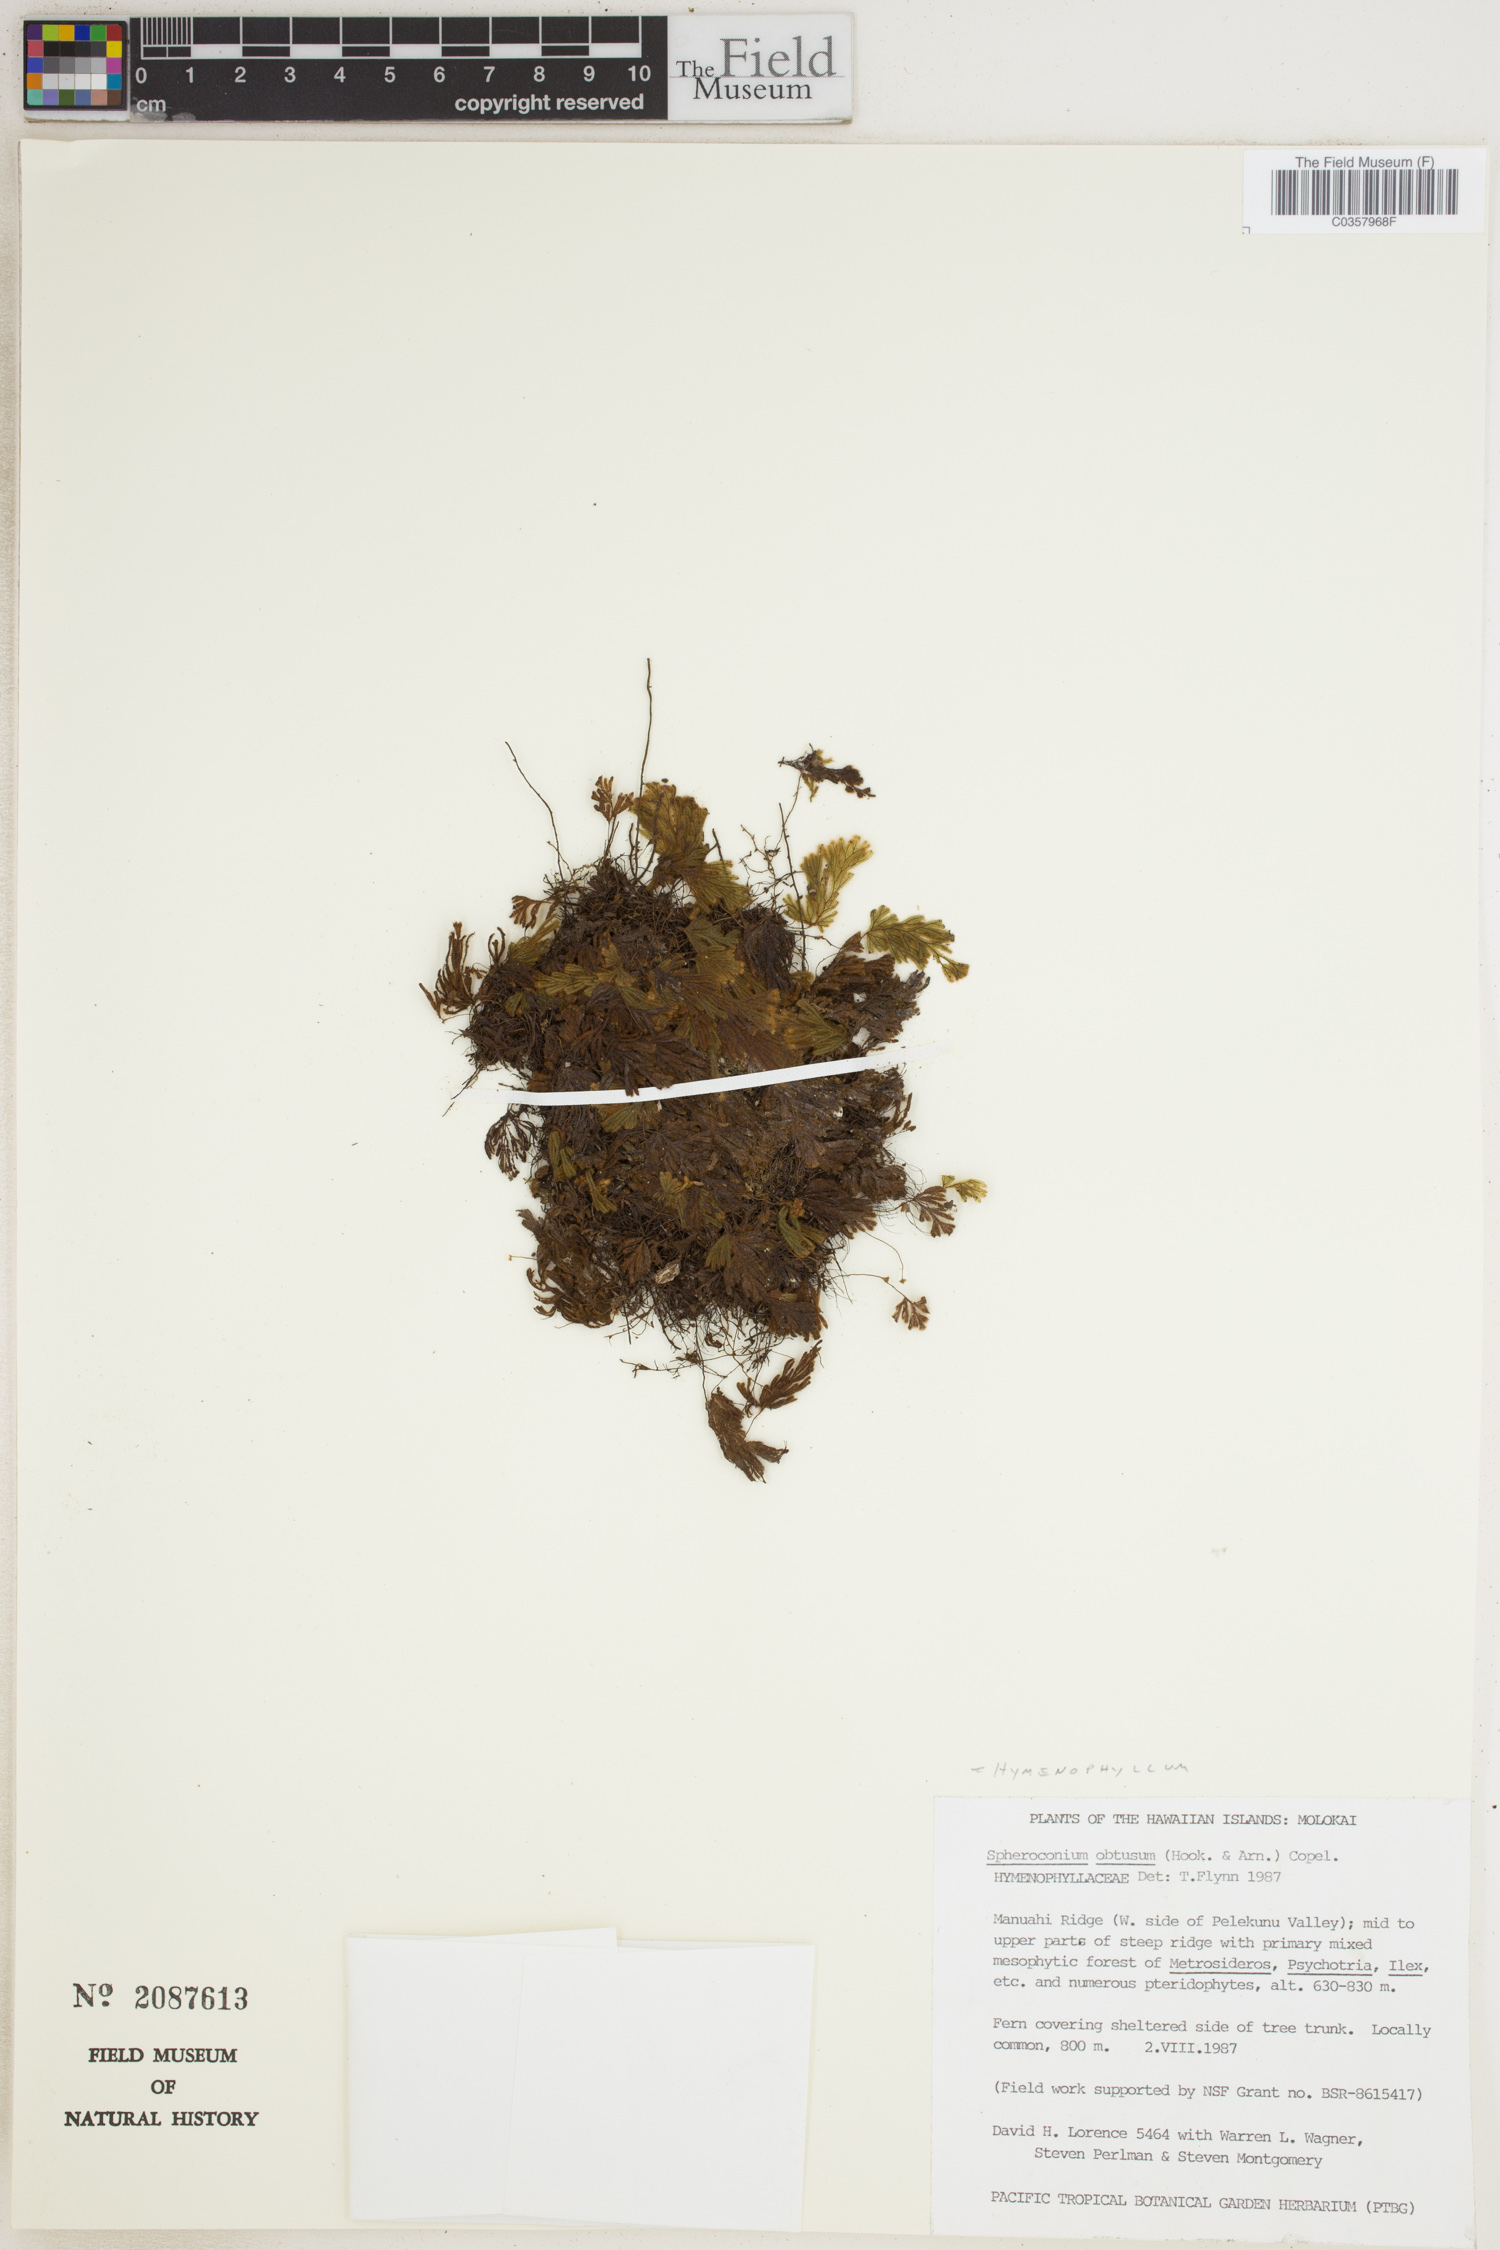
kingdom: Plantae
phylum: Tracheophyta
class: Polypodiopsida
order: Hymenophyllales
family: Hymenophyllaceae
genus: Hymenophyllum
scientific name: Hymenophyllum obtusum
